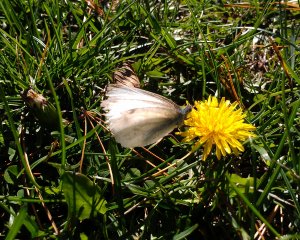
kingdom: Animalia
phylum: Arthropoda
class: Insecta
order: Lepidoptera
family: Pieridae
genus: Pieris
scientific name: Pieris rapae
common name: Cabbage White
